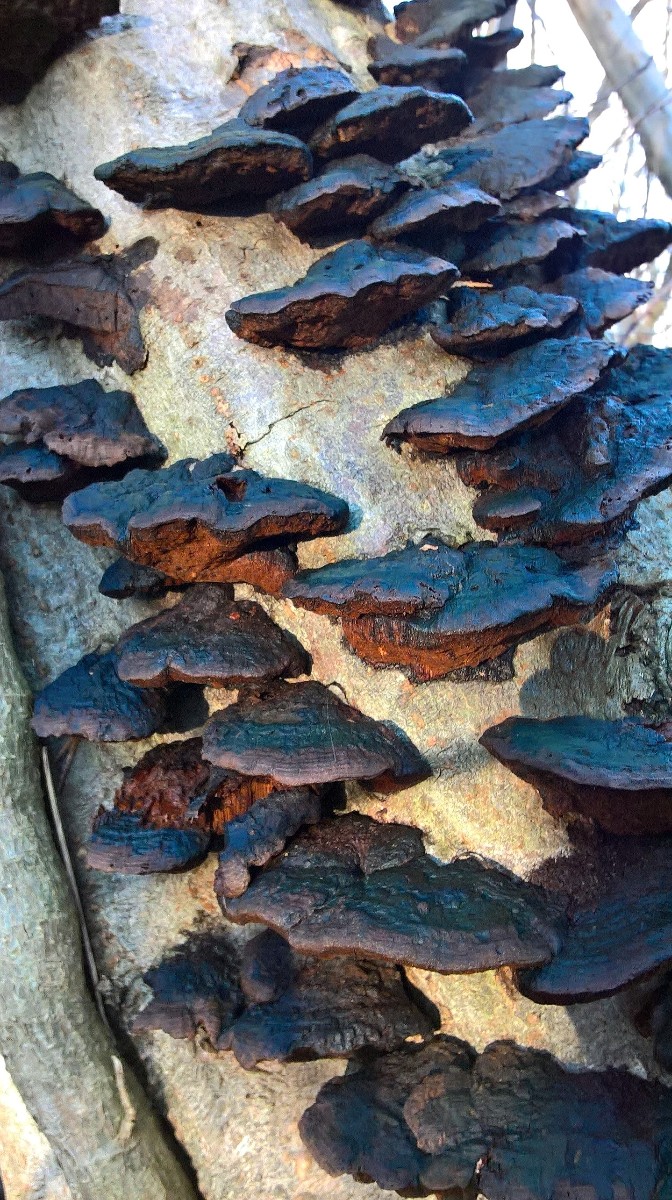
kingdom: Fungi
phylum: Basidiomycota
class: Agaricomycetes
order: Hymenochaetales
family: Hymenochaetaceae
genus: Xanthoporia
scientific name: Xanthoporia radiata
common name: elle-spejlporesvamp
